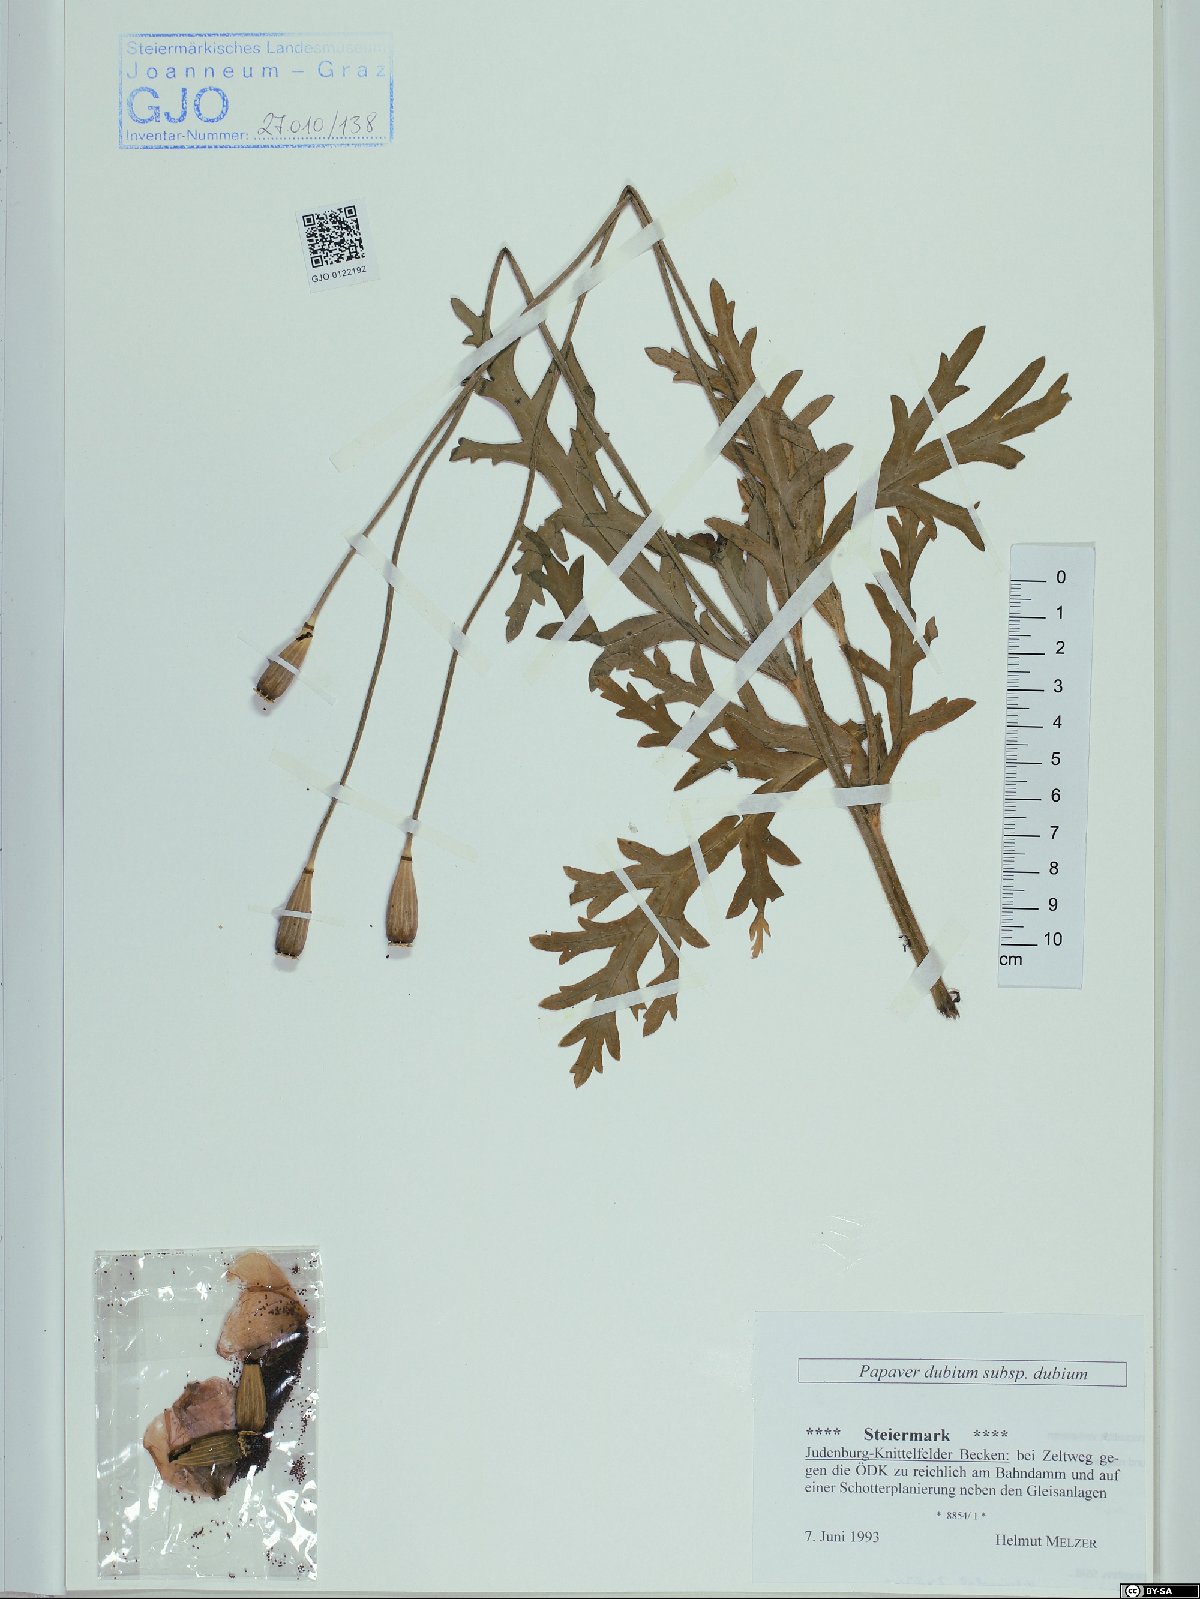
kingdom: Plantae
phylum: Tracheophyta
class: Magnoliopsida
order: Ranunculales
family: Papaveraceae
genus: Papaver
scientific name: Papaver dubium
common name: Long-headed poppy
